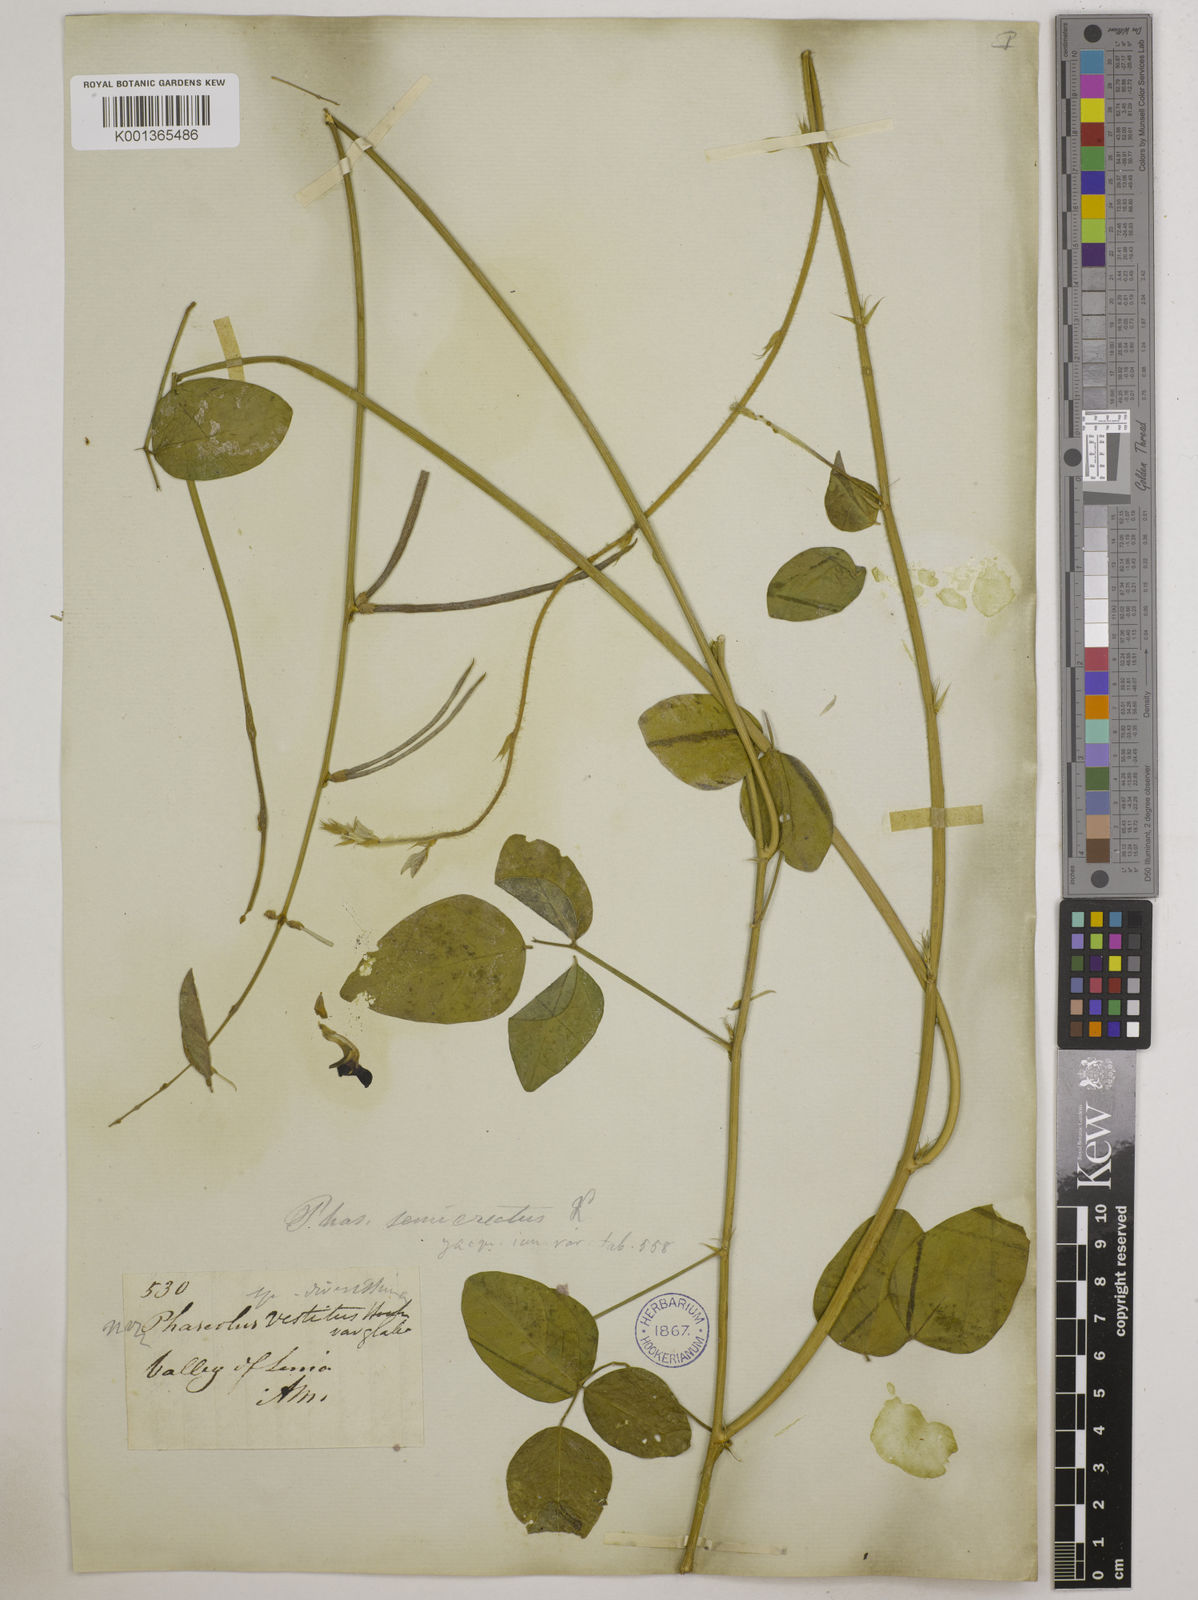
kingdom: Plantae
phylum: Tracheophyta
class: Magnoliopsida
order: Fabales
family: Fabaceae
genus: Macroptilium
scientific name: Macroptilium lathyroides
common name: Wild bushbean
